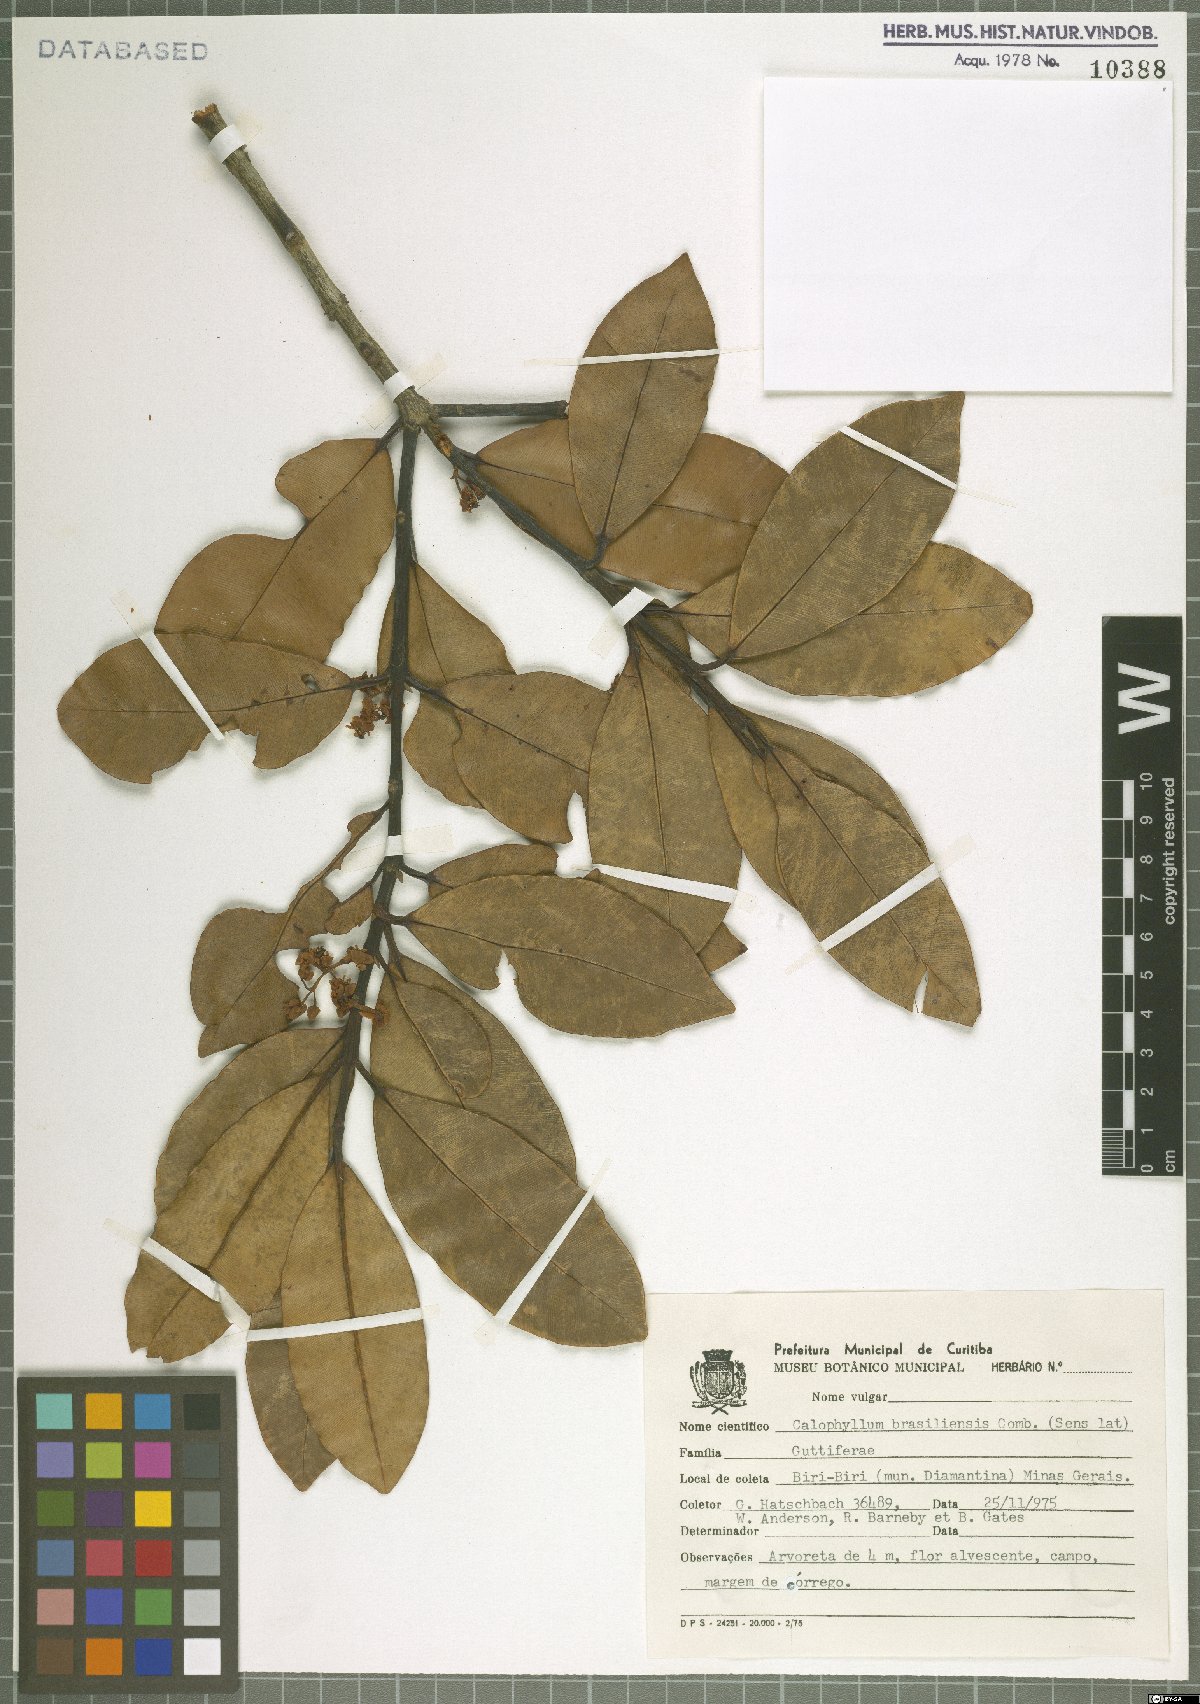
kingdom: Plantae
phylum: Tracheophyta
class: Magnoliopsida
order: Malpighiales
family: Calophyllaceae
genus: Calophyllum
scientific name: Calophyllum brasiliense
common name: Santa maria
